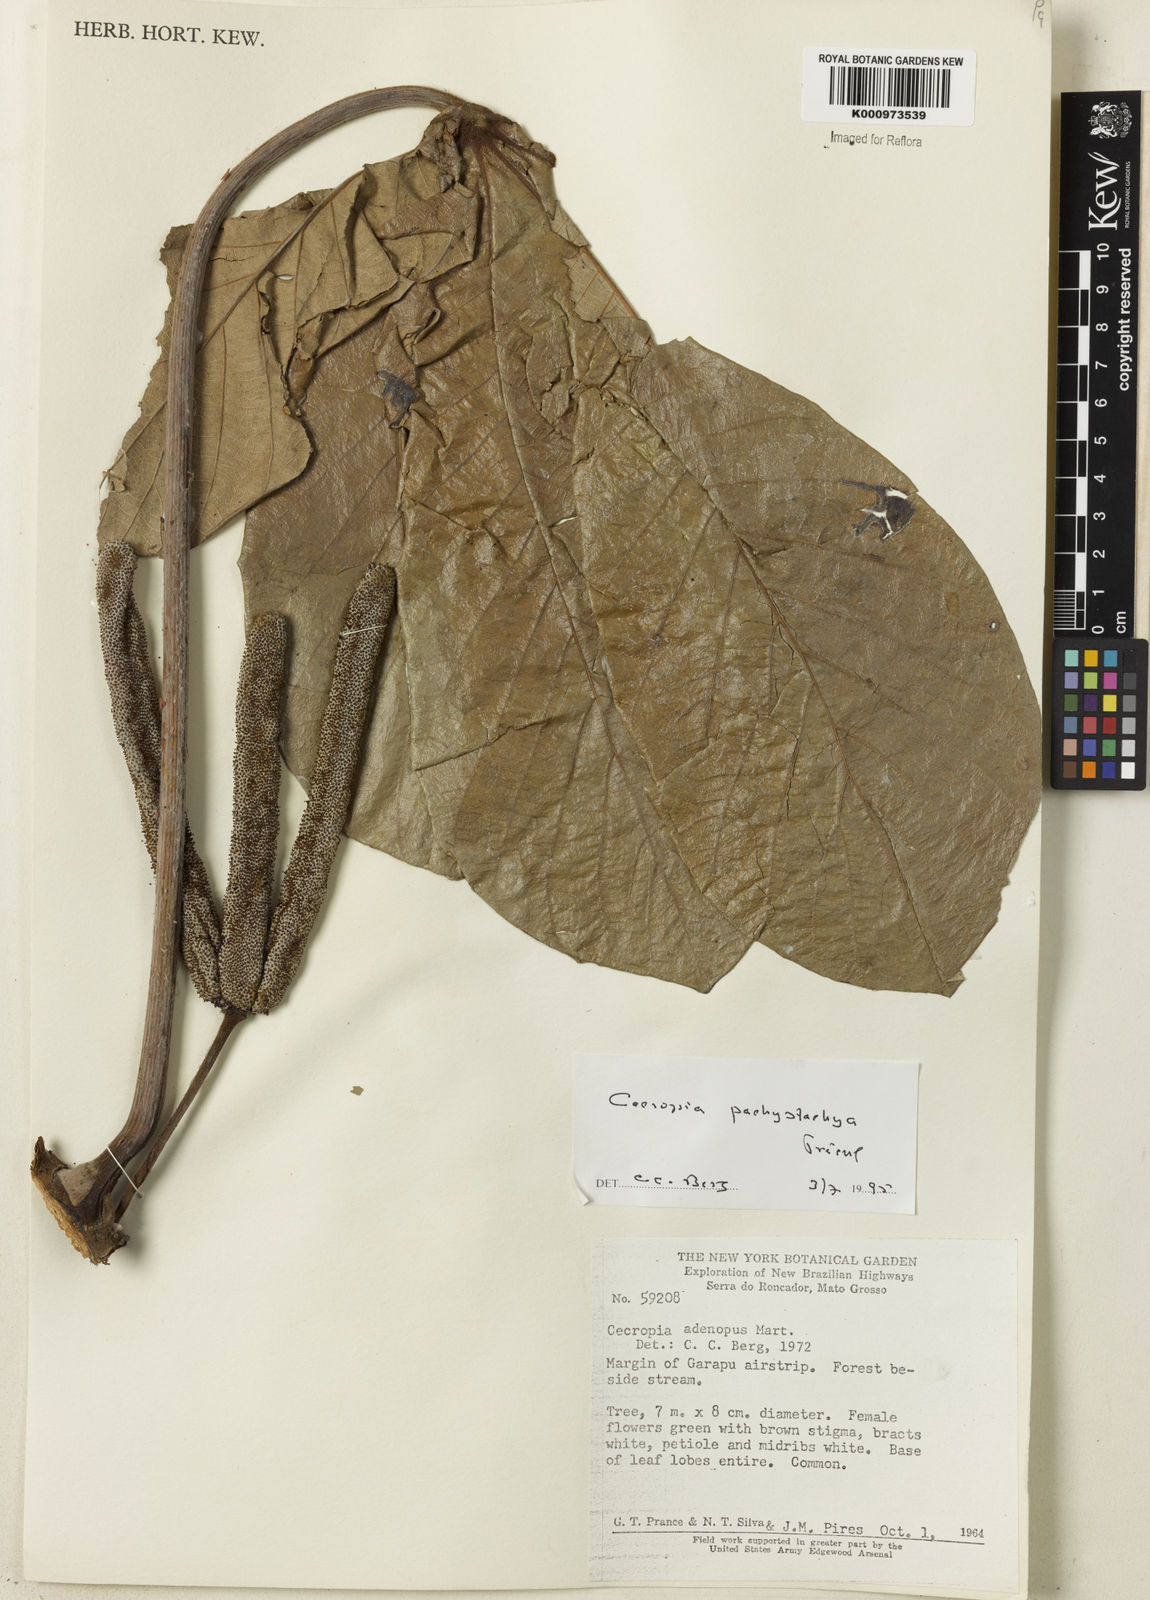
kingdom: Plantae
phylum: Tracheophyta
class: Magnoliopsida
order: Rosales
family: Urticaceae
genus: Cecropia
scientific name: Cecropia
